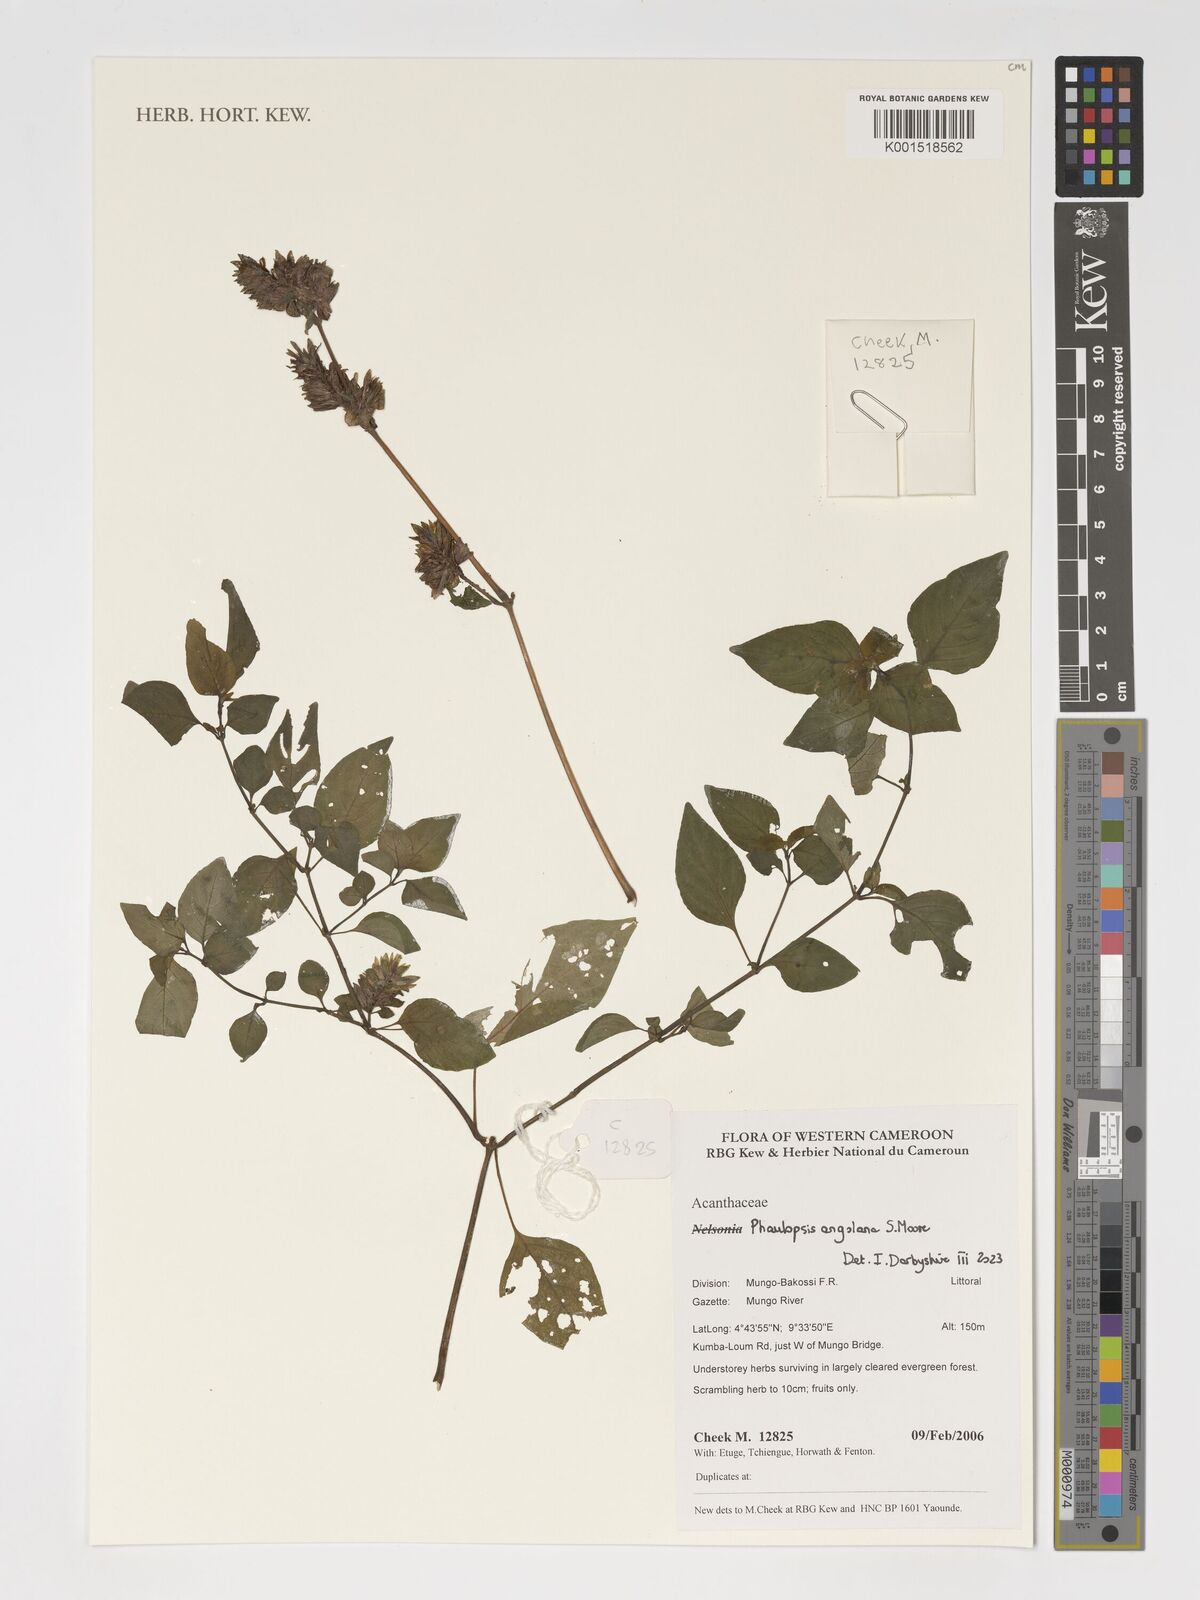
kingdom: Plantae
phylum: Tracheophyta
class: Magnoliopsida
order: Lamiales
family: Acanthaceae
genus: Phaulopsis
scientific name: Phaulopsis angolana
